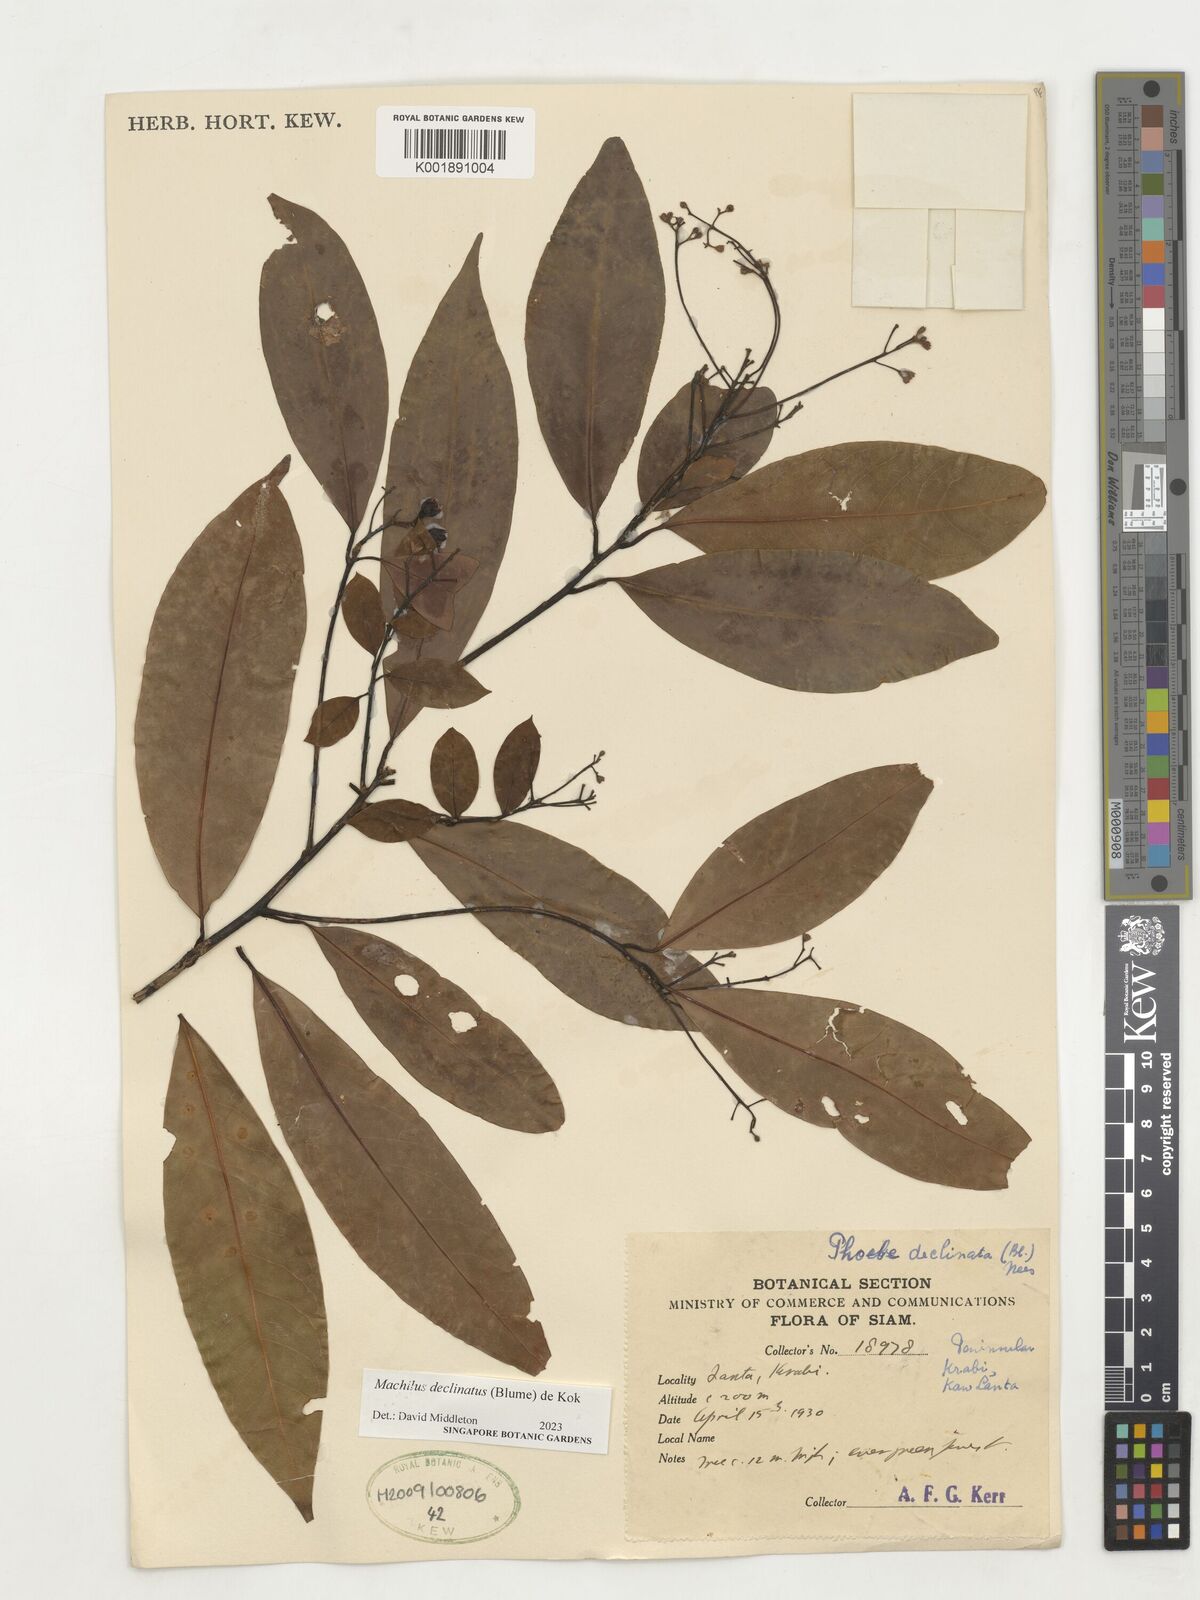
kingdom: Plantae
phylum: Tracheophyta
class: Magnoliopsida
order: Laurales
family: Lauraceae
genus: Machilus
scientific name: Machilus declinata
